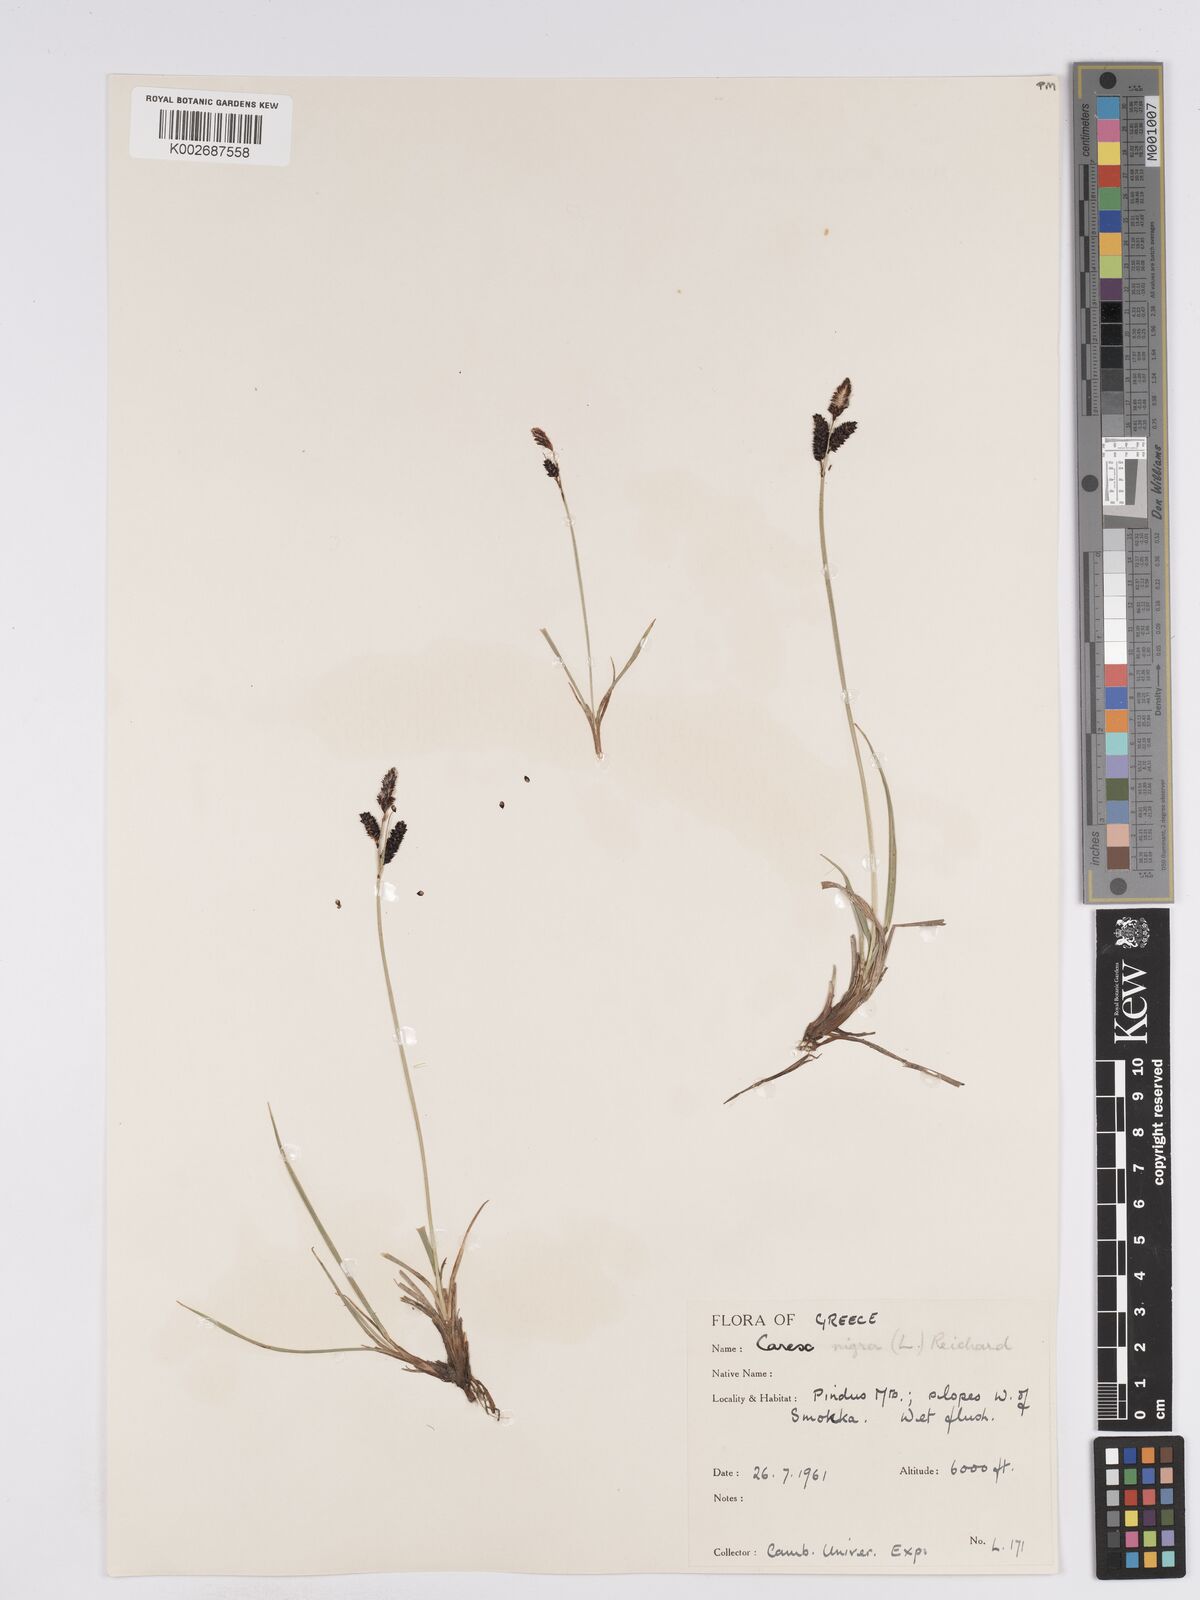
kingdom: Plantae
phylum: Tracheophyta
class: Liliopsida
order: Poales
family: Cyperaceae
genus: Carex
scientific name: Carex nigra
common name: Common sedge
